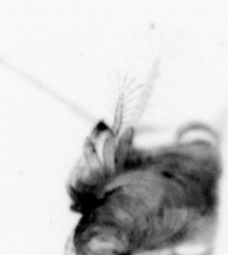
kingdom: Animalia
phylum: Arthropoda
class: Malacostraca
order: Decapoda
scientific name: Decapoda
